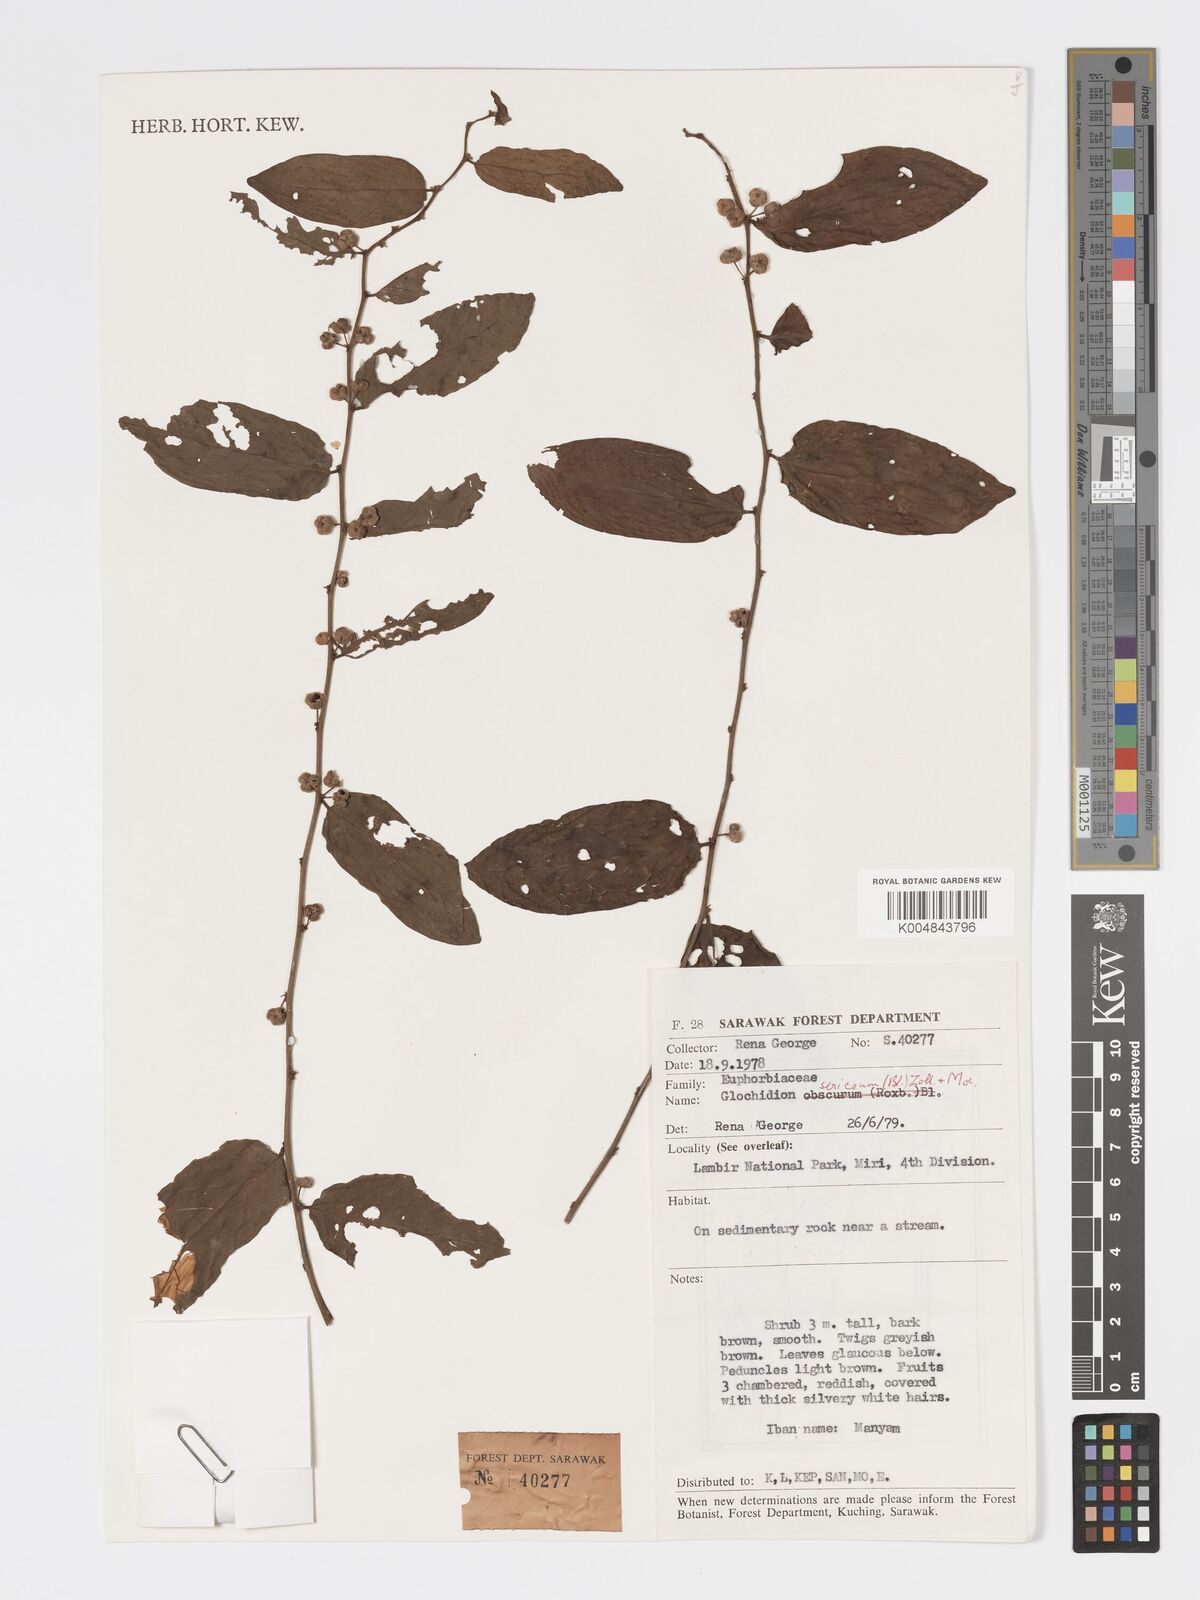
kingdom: Plantae
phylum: Tracheophyta
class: Magnoliopsida
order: Malpighiales
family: Phyllanthaceae
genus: Glochidion
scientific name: Glochidion sericeum
